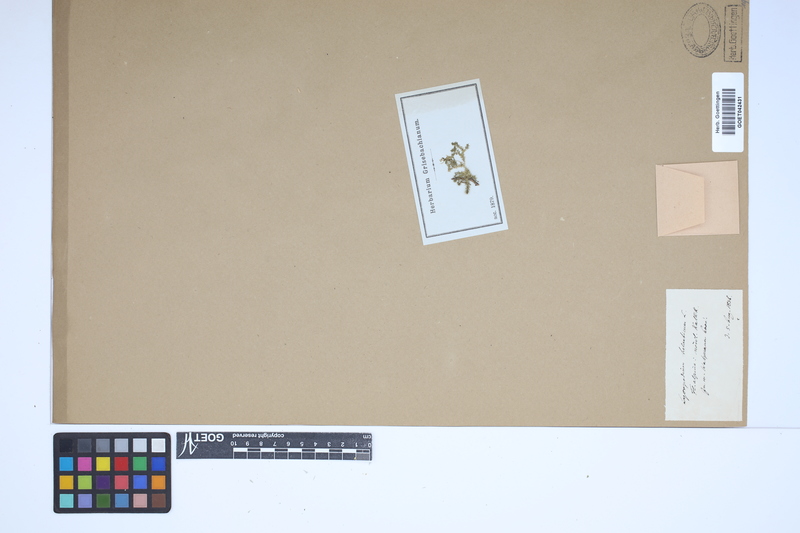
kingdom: Plantae
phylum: Tracheophyta
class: Lycopodiopsida
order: Selaginellales
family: Selaginellaceae
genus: Selaginella
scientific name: Selaginella helvetica
